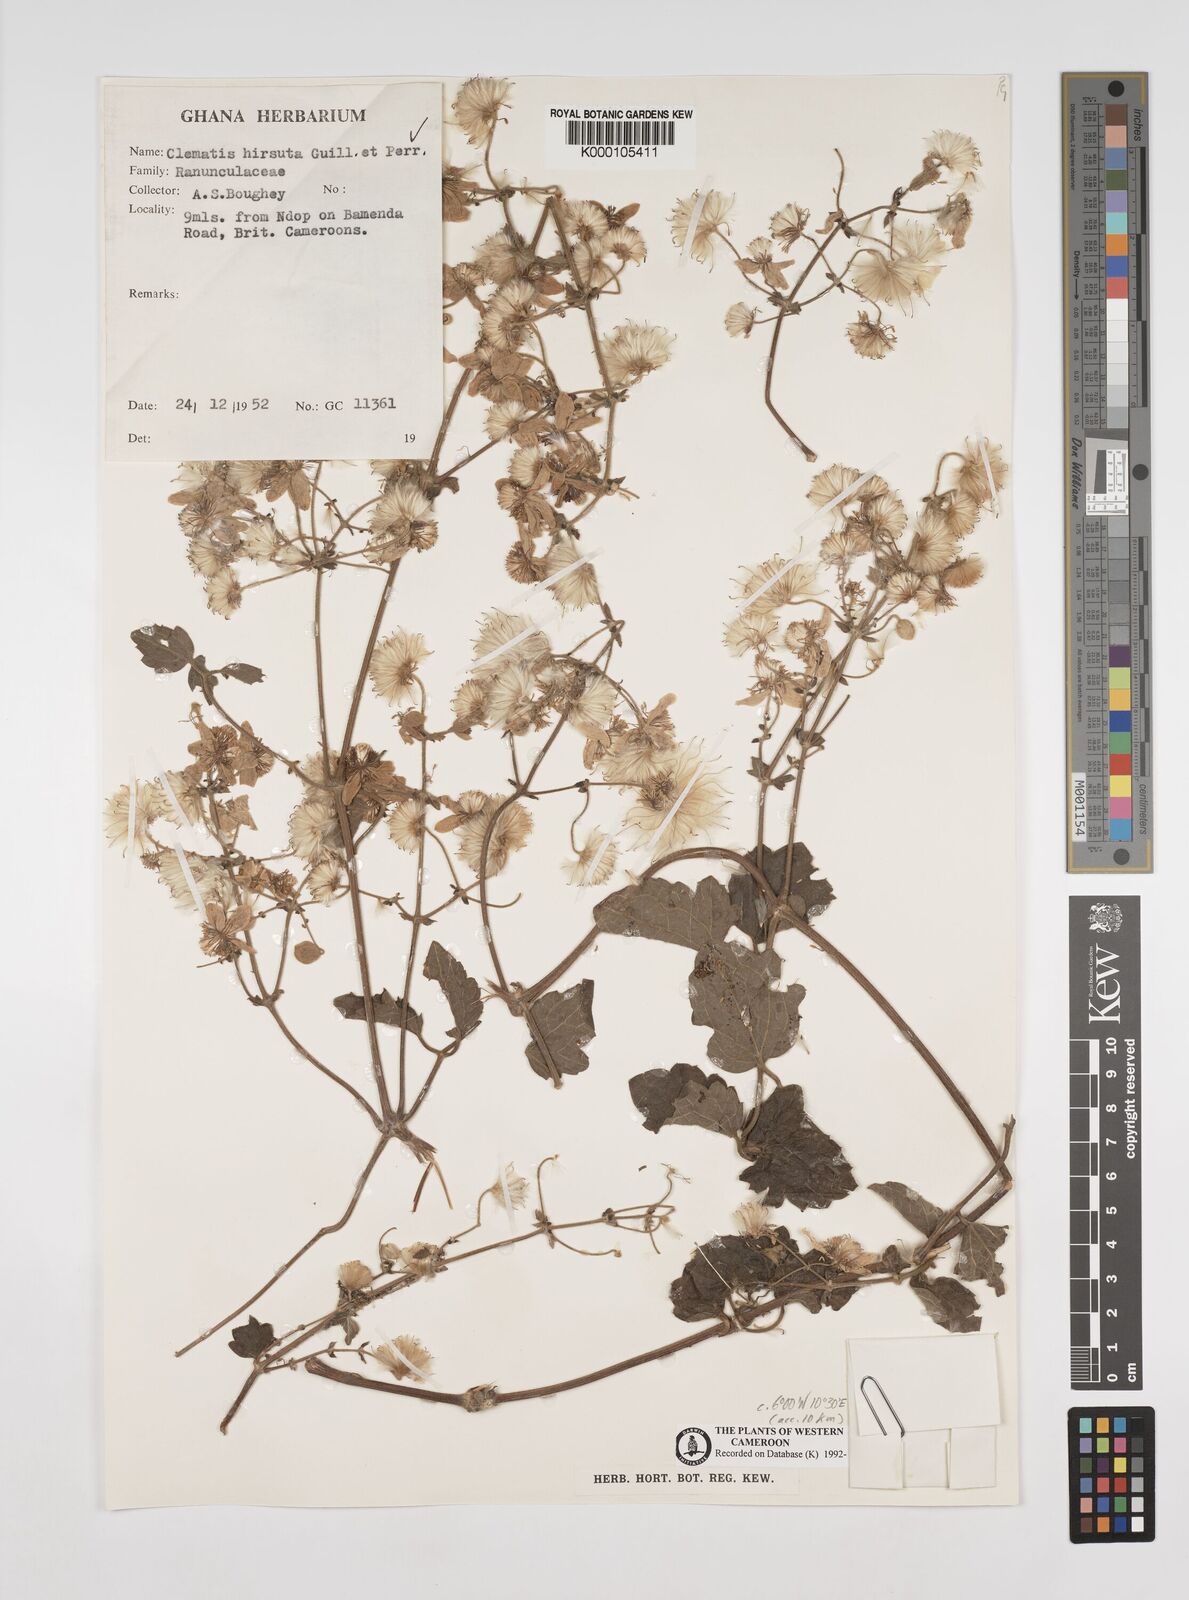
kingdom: Plantae
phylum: Tracheophyta
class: Magnoliopsida
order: Ranunculales
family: Ranunculaceae
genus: Clematis
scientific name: Clematis hirsuta
